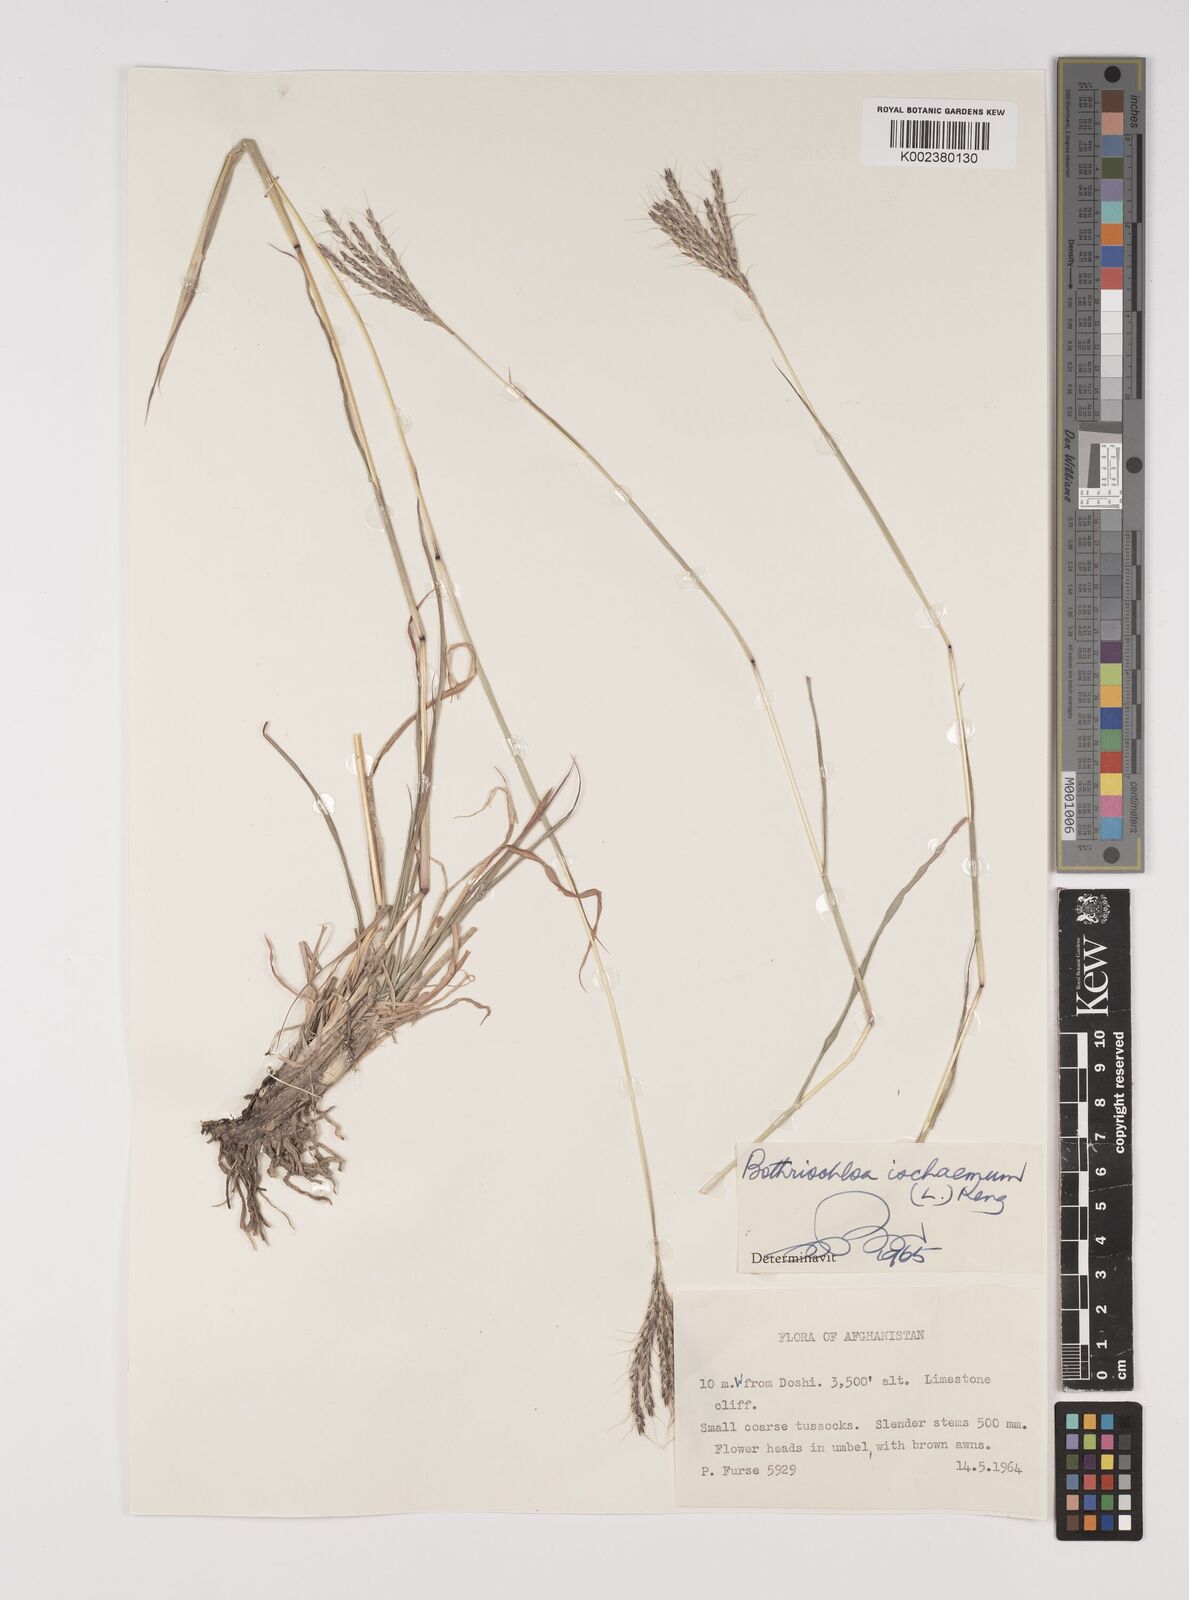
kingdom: Plantae
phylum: Tracheophyta
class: Liliopsida
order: Poales
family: Poaceae
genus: Bothriochloa
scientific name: Bothriochloa ischaemum
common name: Yellow bluestem
